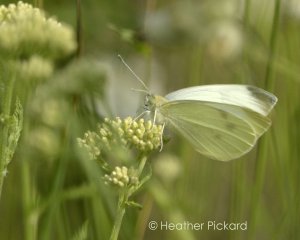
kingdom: Animalia
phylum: Arthropoda
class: Insecta
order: Lepidoptera
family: Pieridae
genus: Pieris
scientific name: Pieris rapae
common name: Cabbage White
